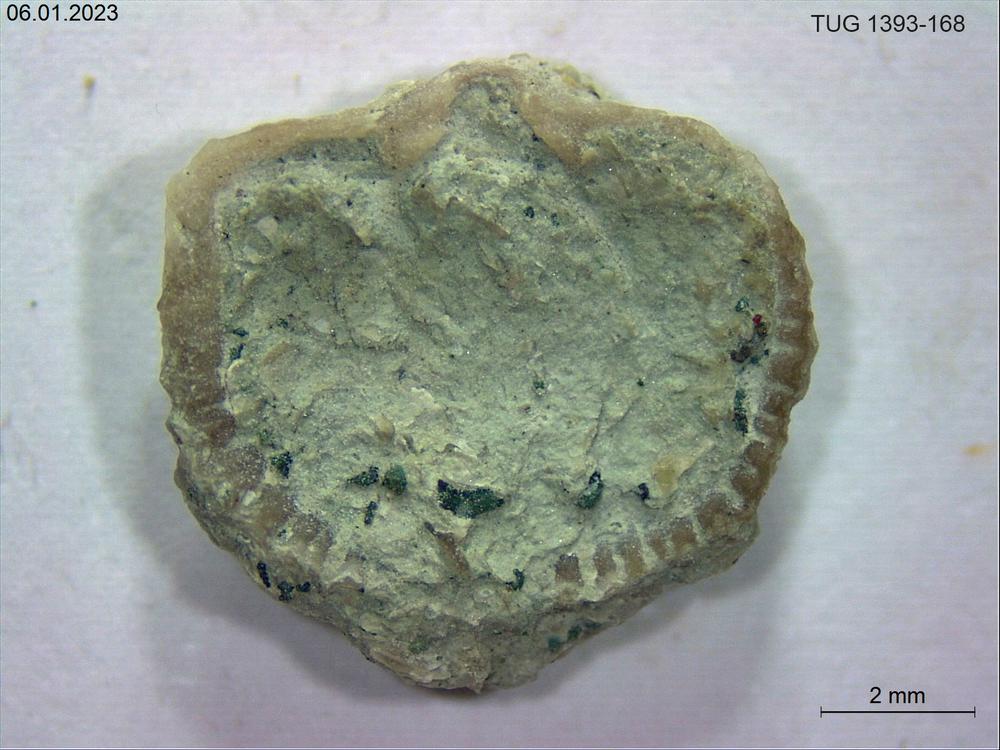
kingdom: Animalia
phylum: Brachiopoda
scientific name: Brachiopoda
